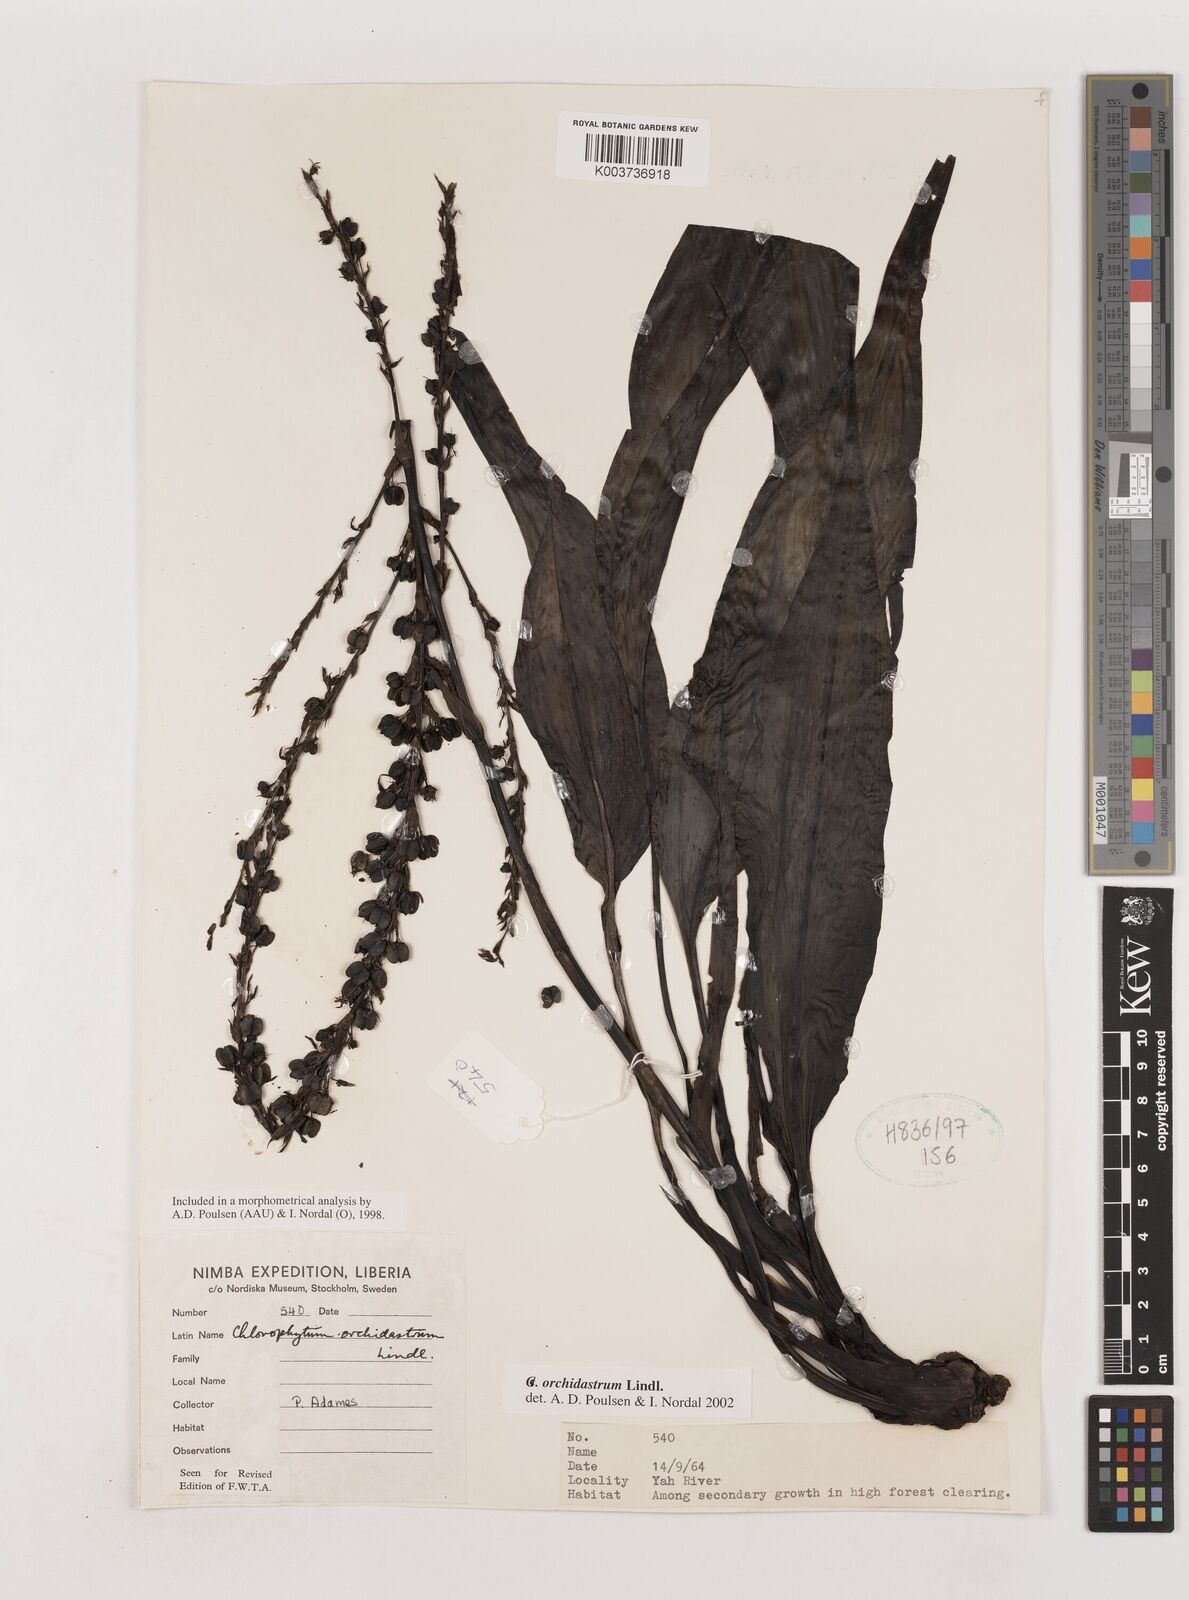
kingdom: Plantae
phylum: Tracheophyta
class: Liliopsida
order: Asparagales
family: Asparagaceae
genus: Chlorophytum
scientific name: Chlorophytum orchidastrum
